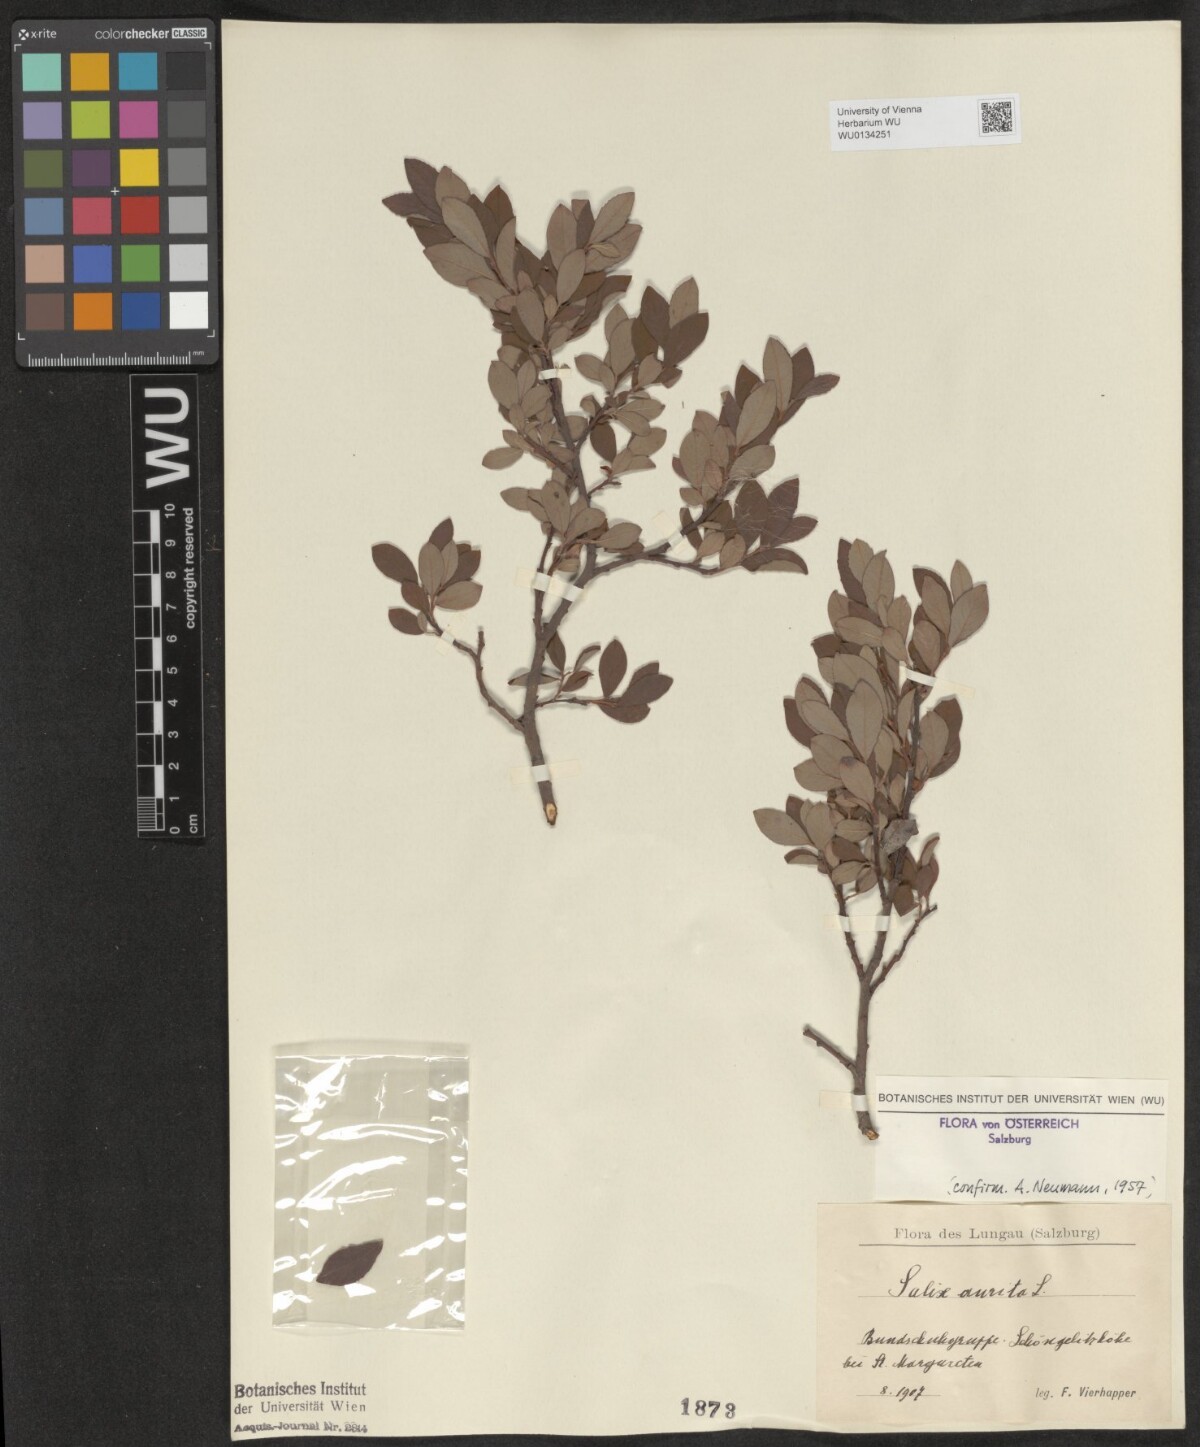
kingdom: Plantae
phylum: Tracheophyta
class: Magnoliopsida
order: Malpighiales
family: Salicaceae
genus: Salix
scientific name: Salix aurita
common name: Eared willow
